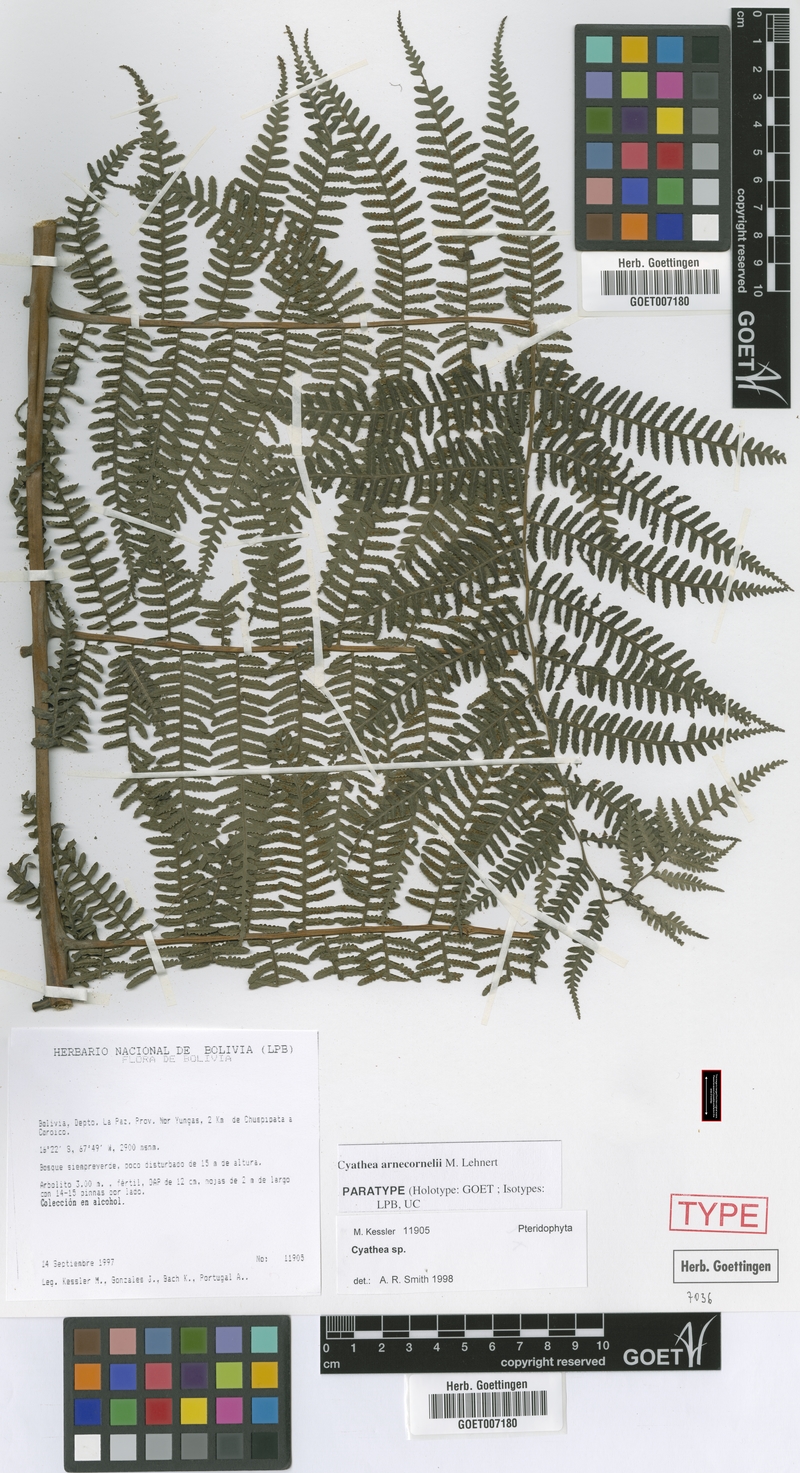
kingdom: Plantae
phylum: Tracheophyta
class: Polypodiopsida
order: Cyatheales
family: Cyatheaceae
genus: Cyathea
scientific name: Cyathea arnecornelii
